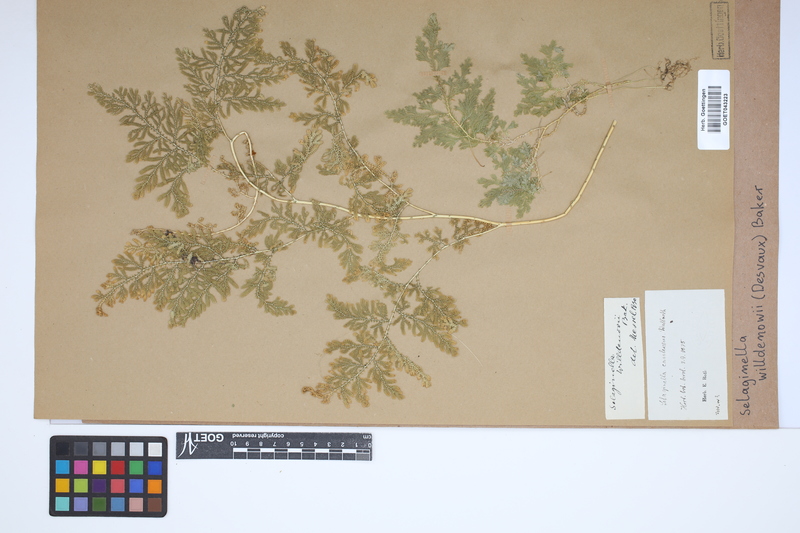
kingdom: Plantae
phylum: Tracheophyta
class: Lycopodiopsida
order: Selaginellales
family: Selaginellaceae
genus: Selaginella
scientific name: Selaginella willdenowii
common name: Willdenow's spikemoss
